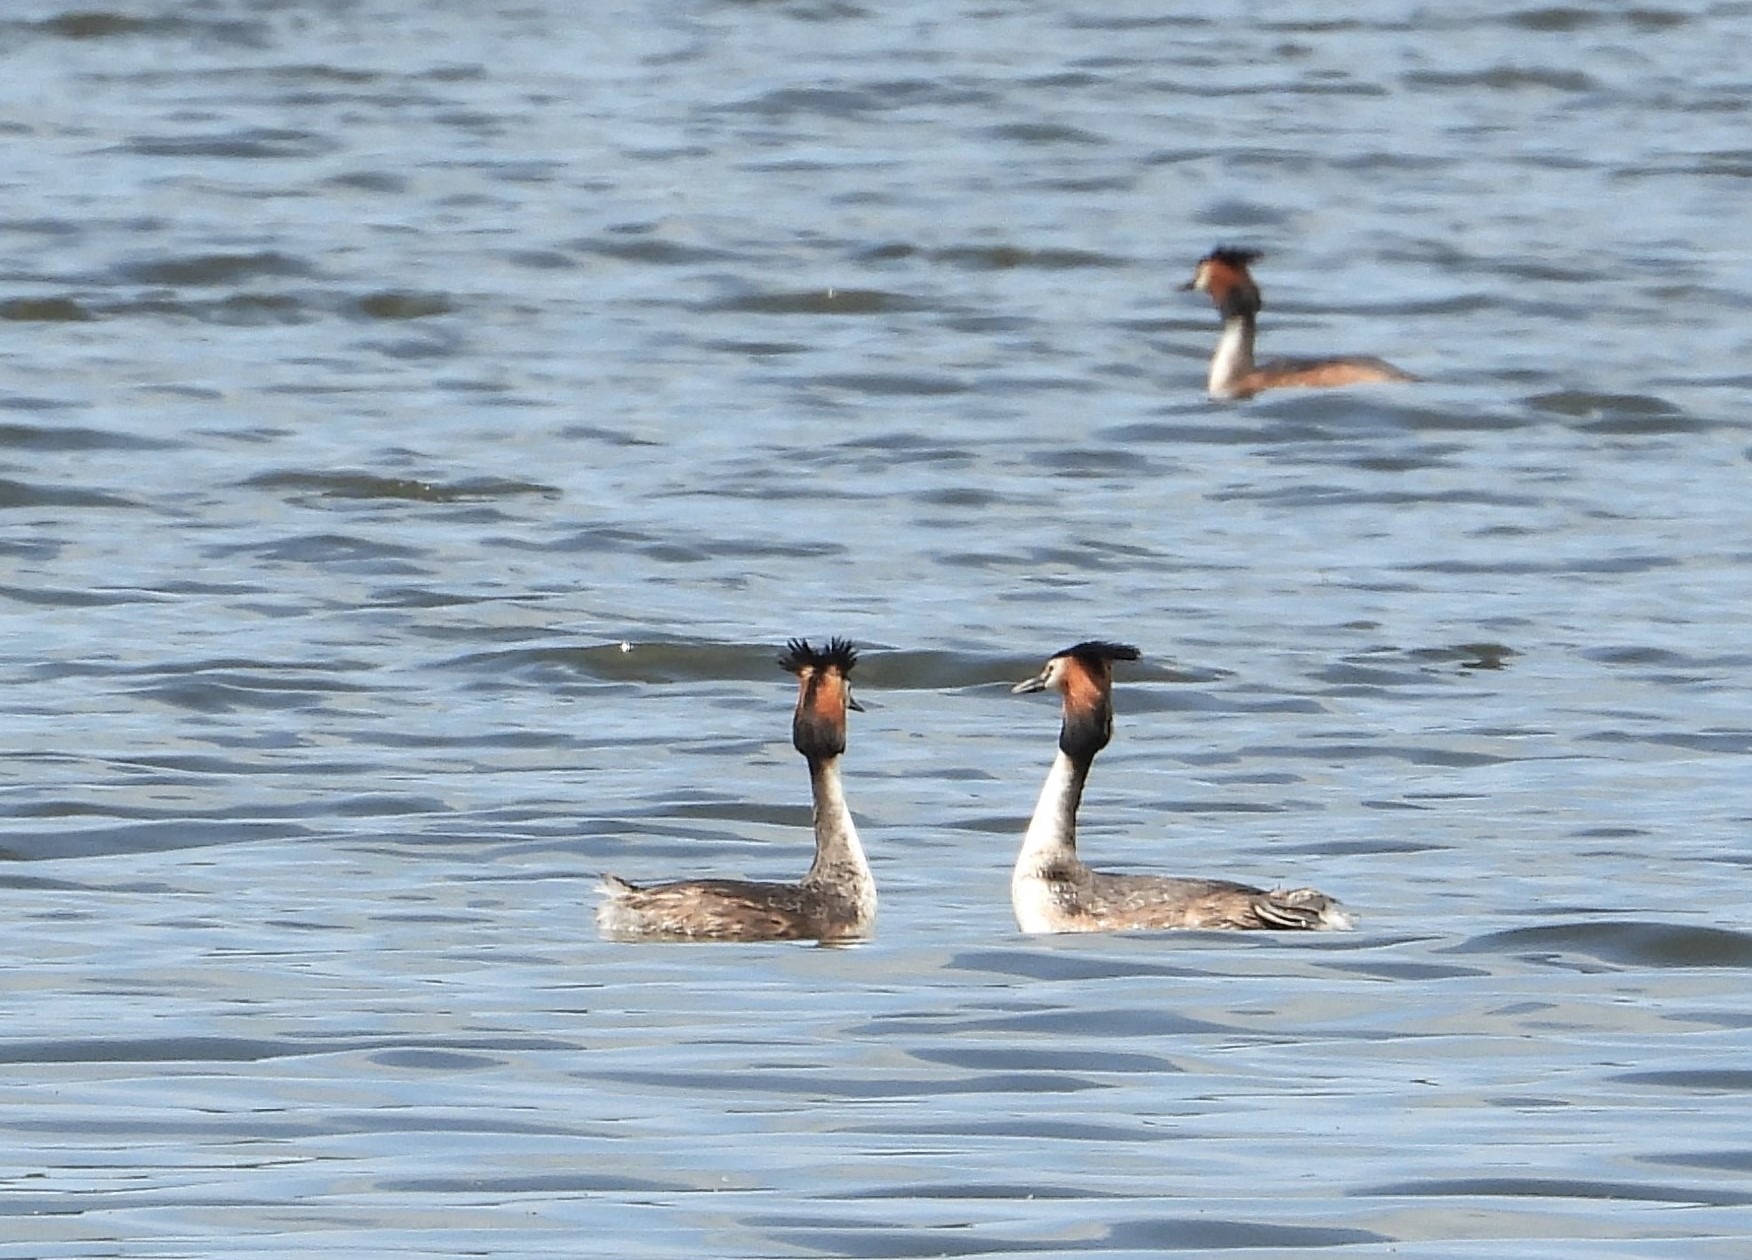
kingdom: Animalia
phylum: Chordata
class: Aves
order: Podicipediformes
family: Podicipedidae
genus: Podiceps
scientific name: Podiceps cristatus
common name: Toppet lappedykker
